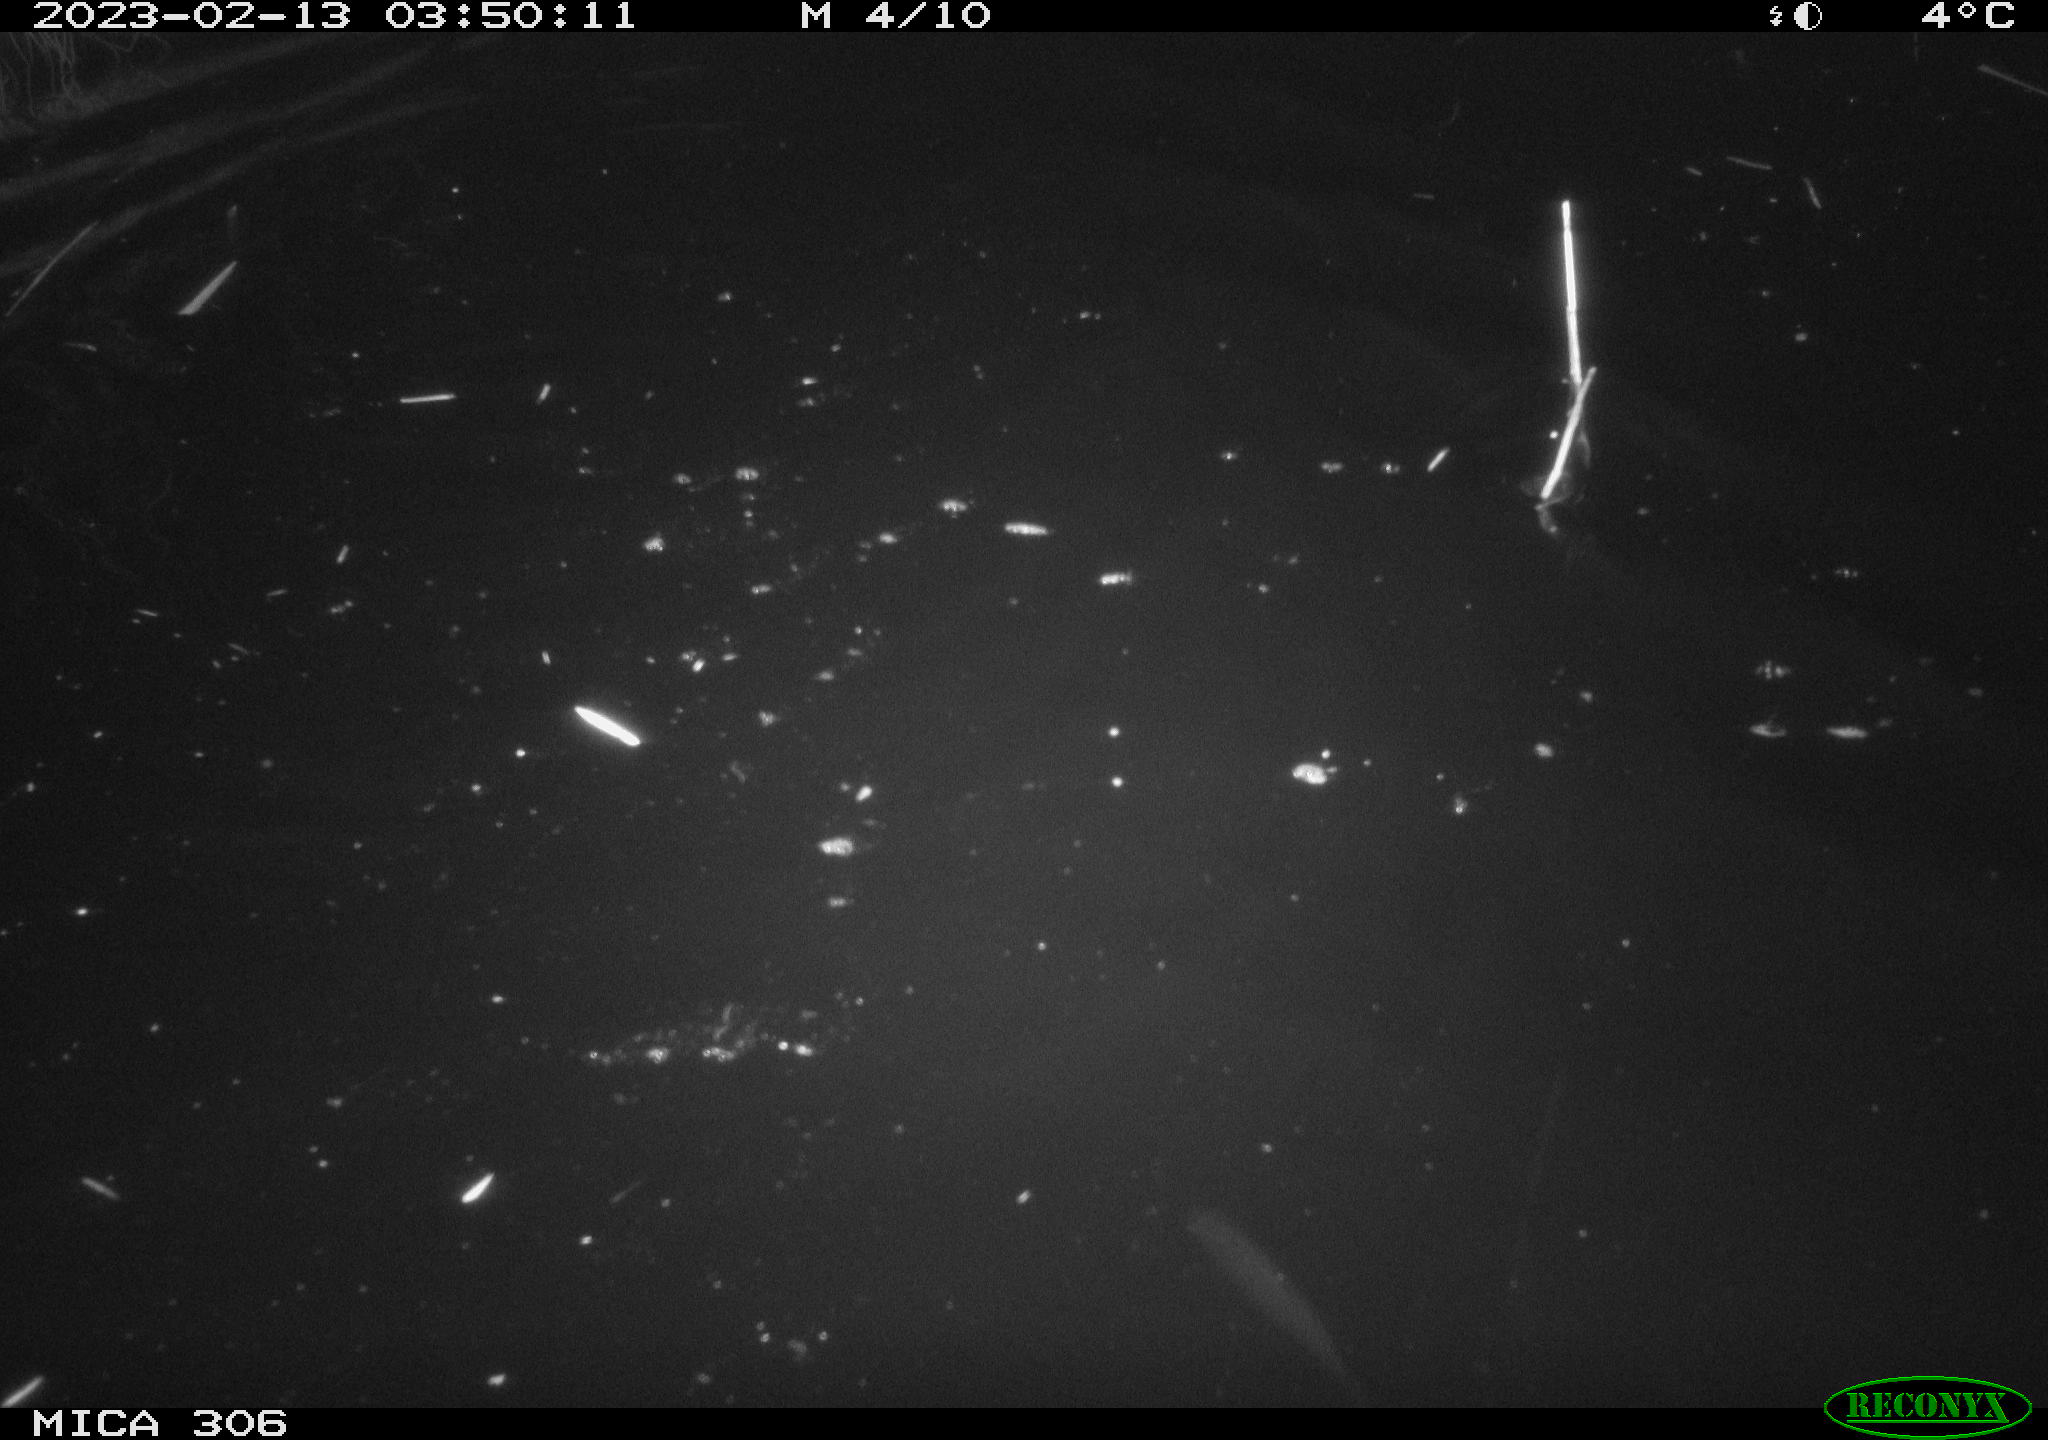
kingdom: Animalia
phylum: Chordata
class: Mammalia
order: Rodentia
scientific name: Rodentia
